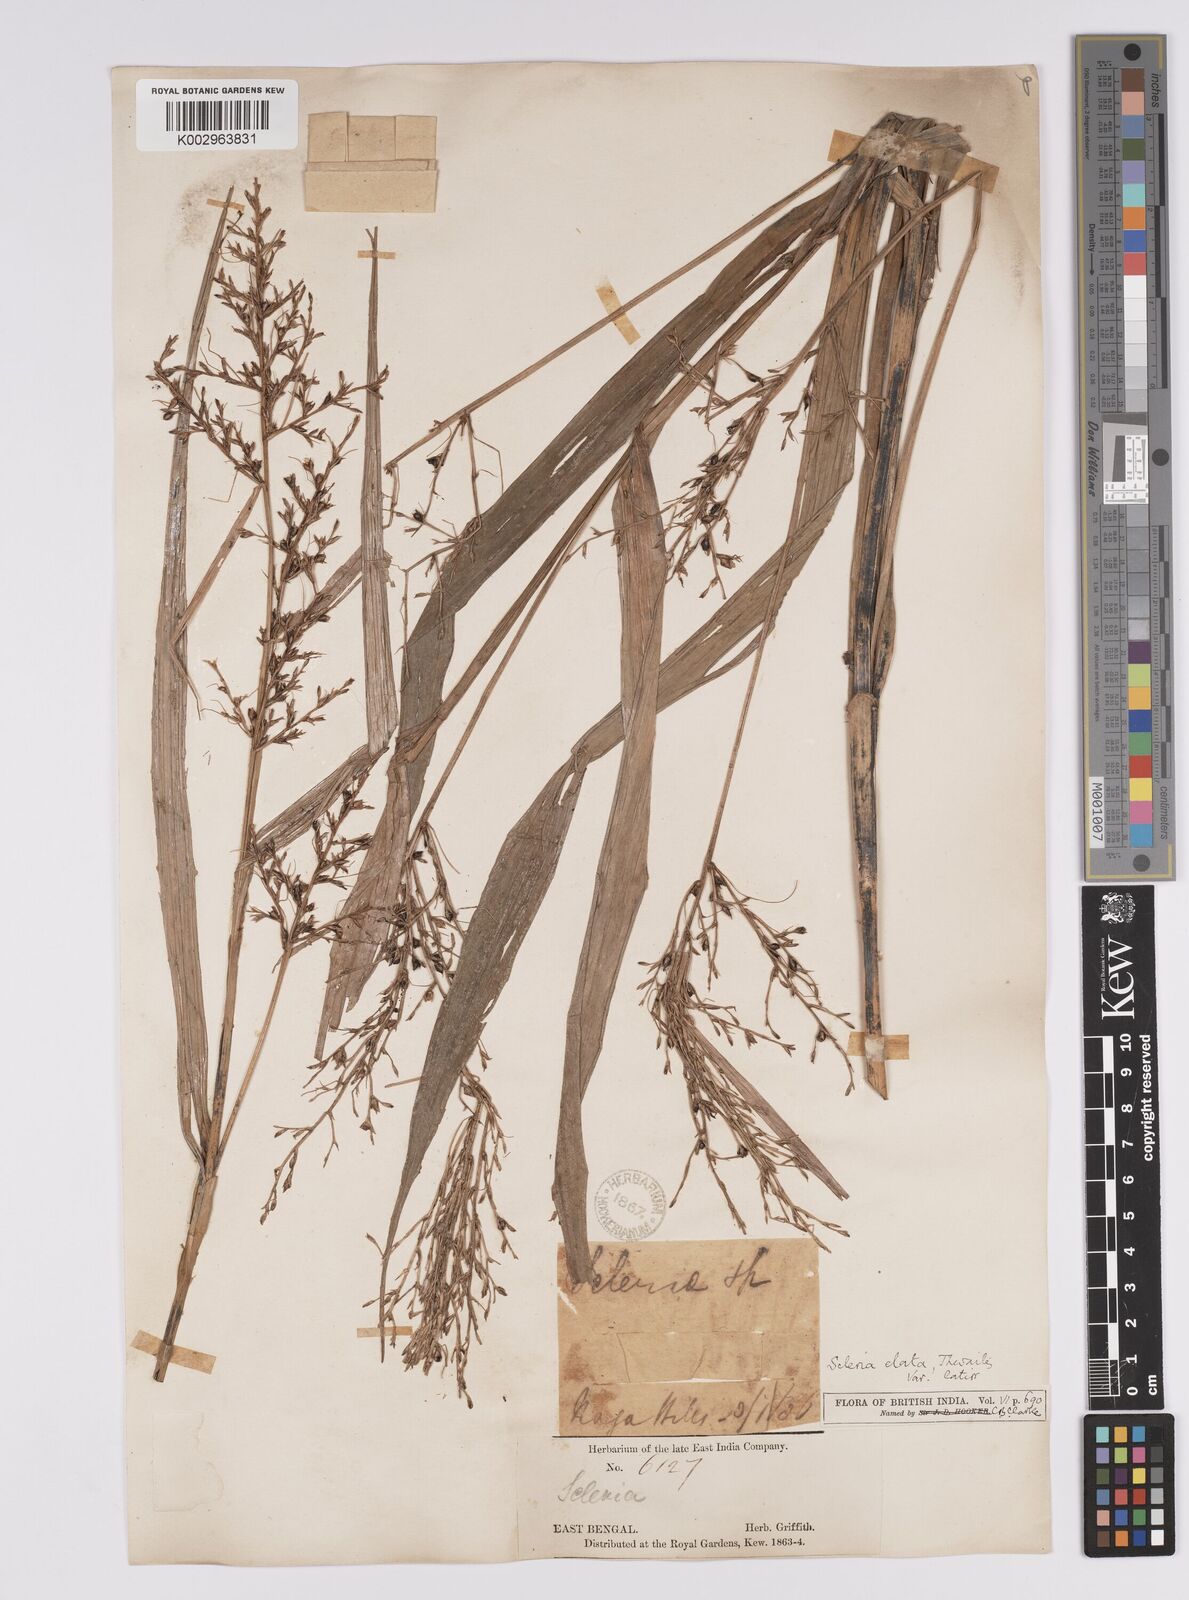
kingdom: Plantae
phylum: Tracheophyta
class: Liliopsida
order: Poales
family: Cyperaceae
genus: Scleria
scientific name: Scleria terrestris
